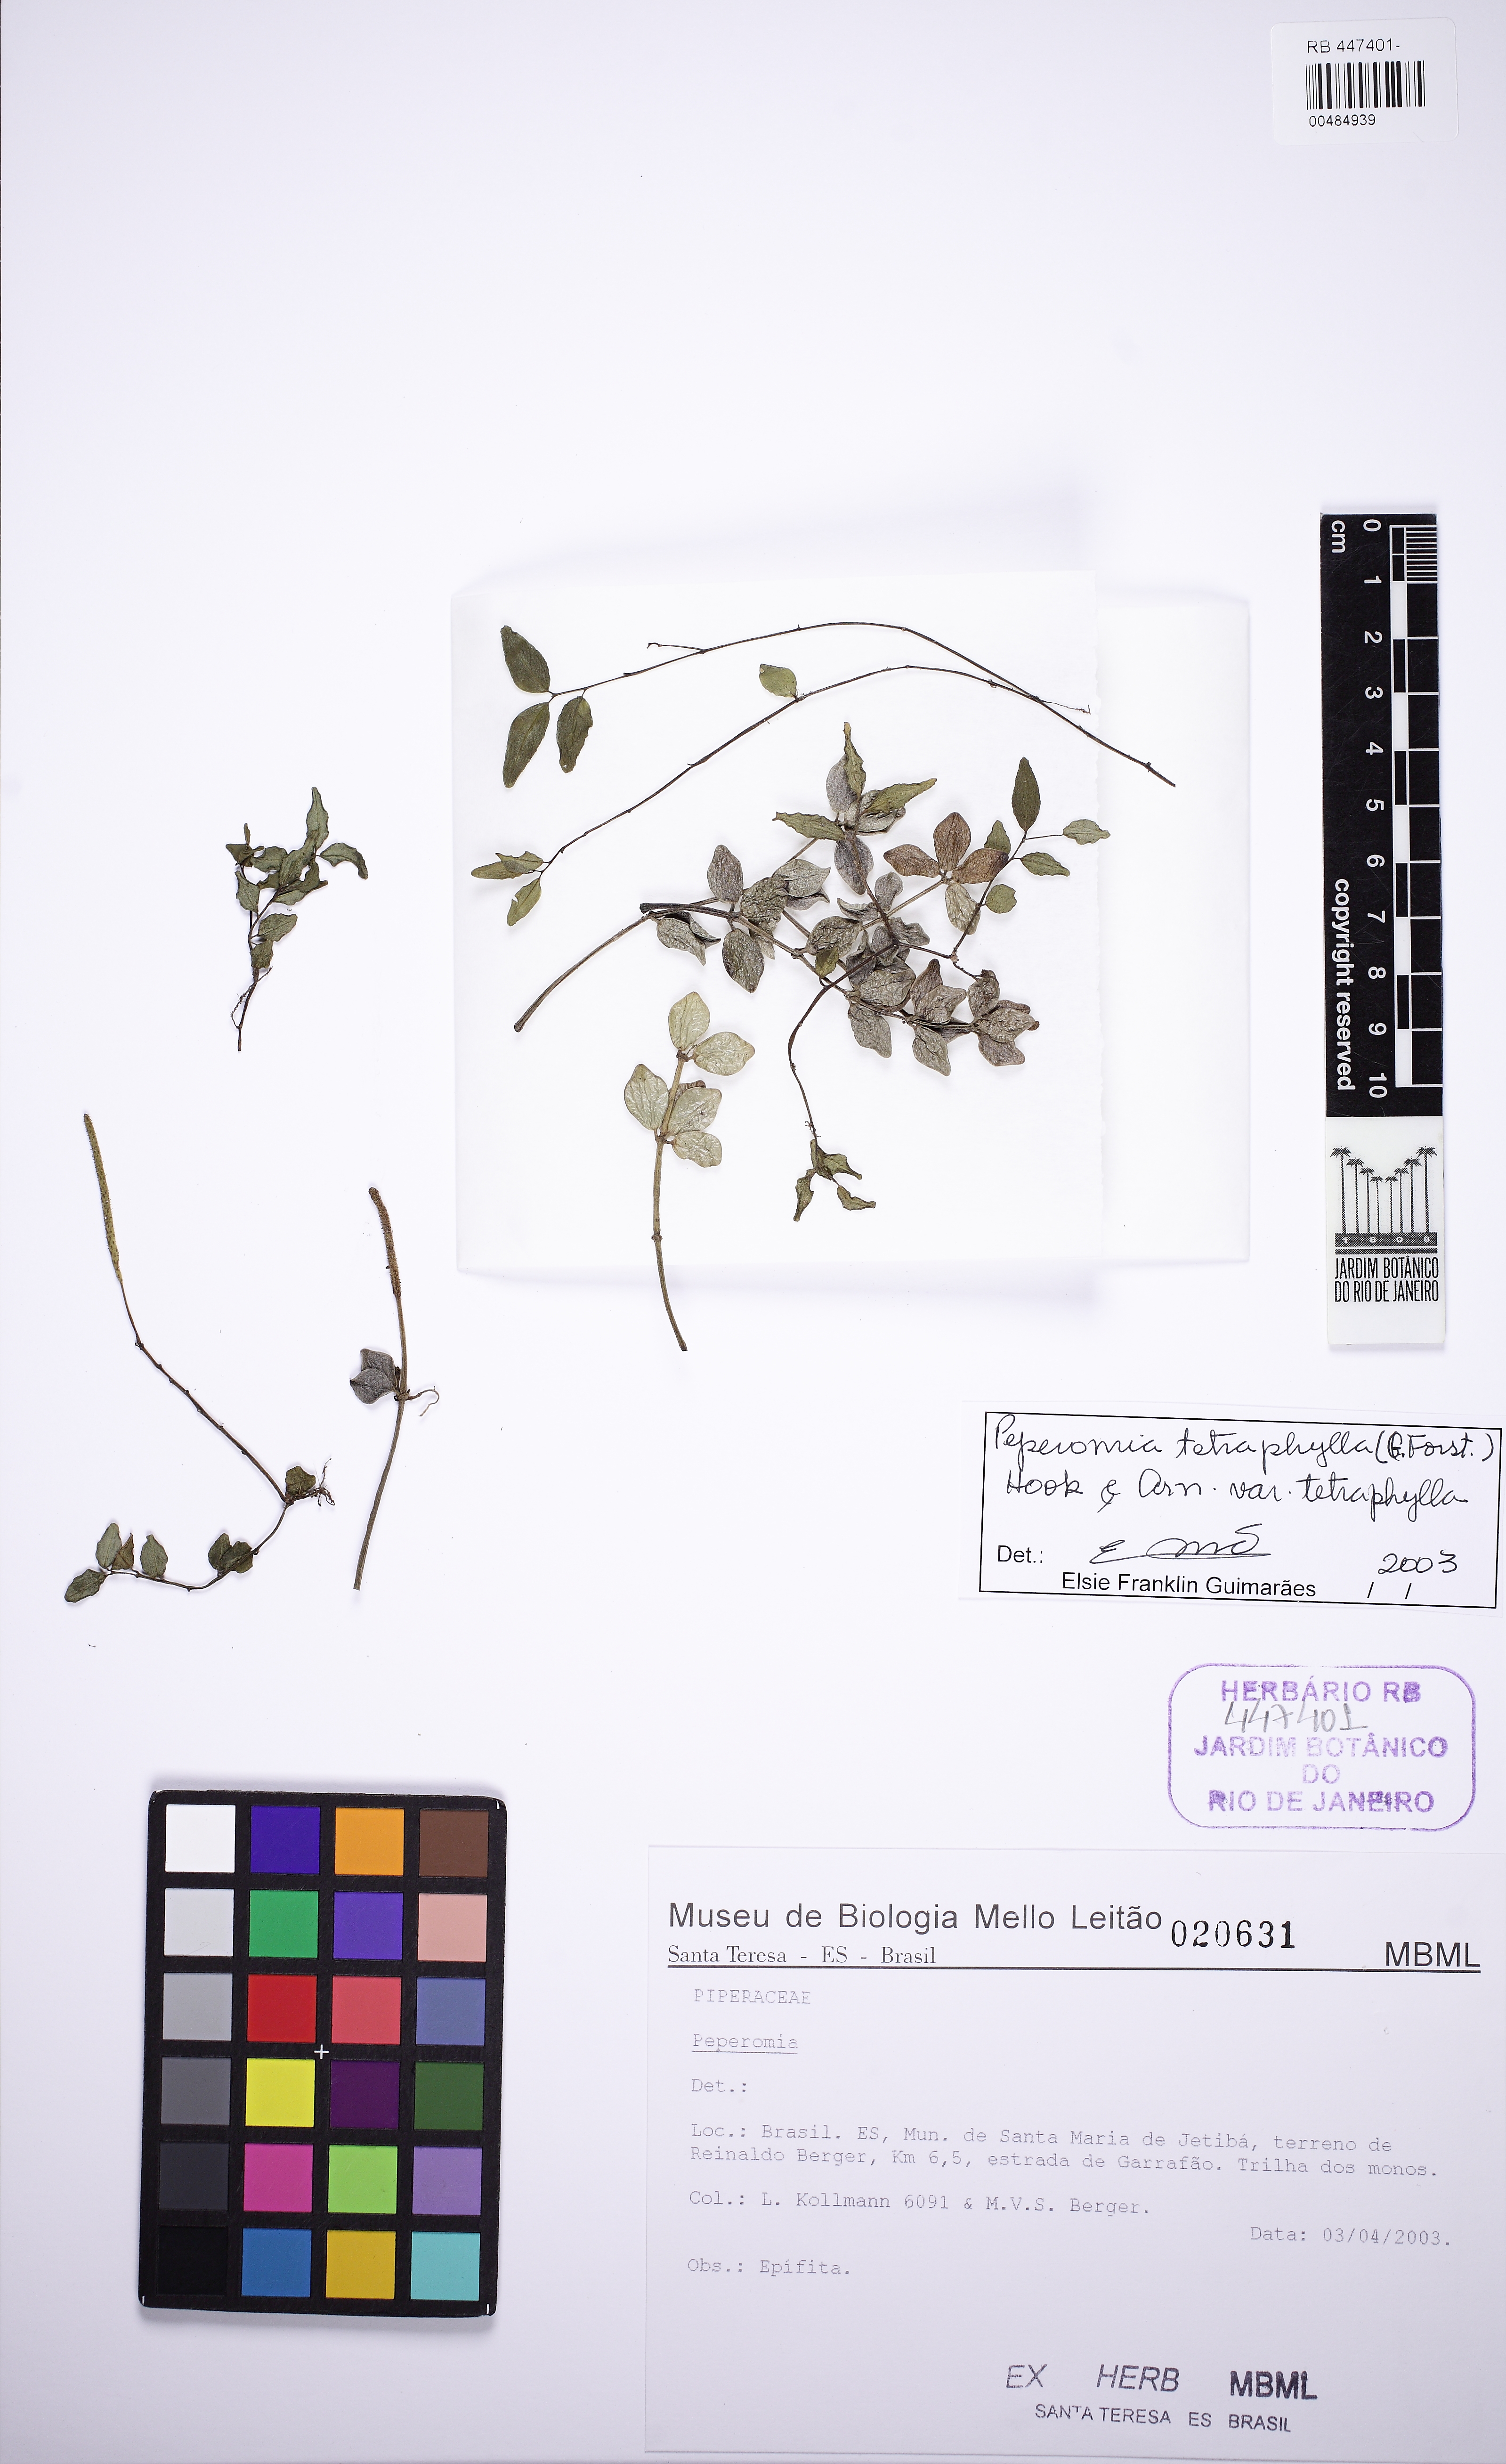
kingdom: Plantae
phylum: Tracheophyta
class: Magnoliopsida
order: Piperales
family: Piperaceae
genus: Peperomia
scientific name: Peperomia tetraphylla
